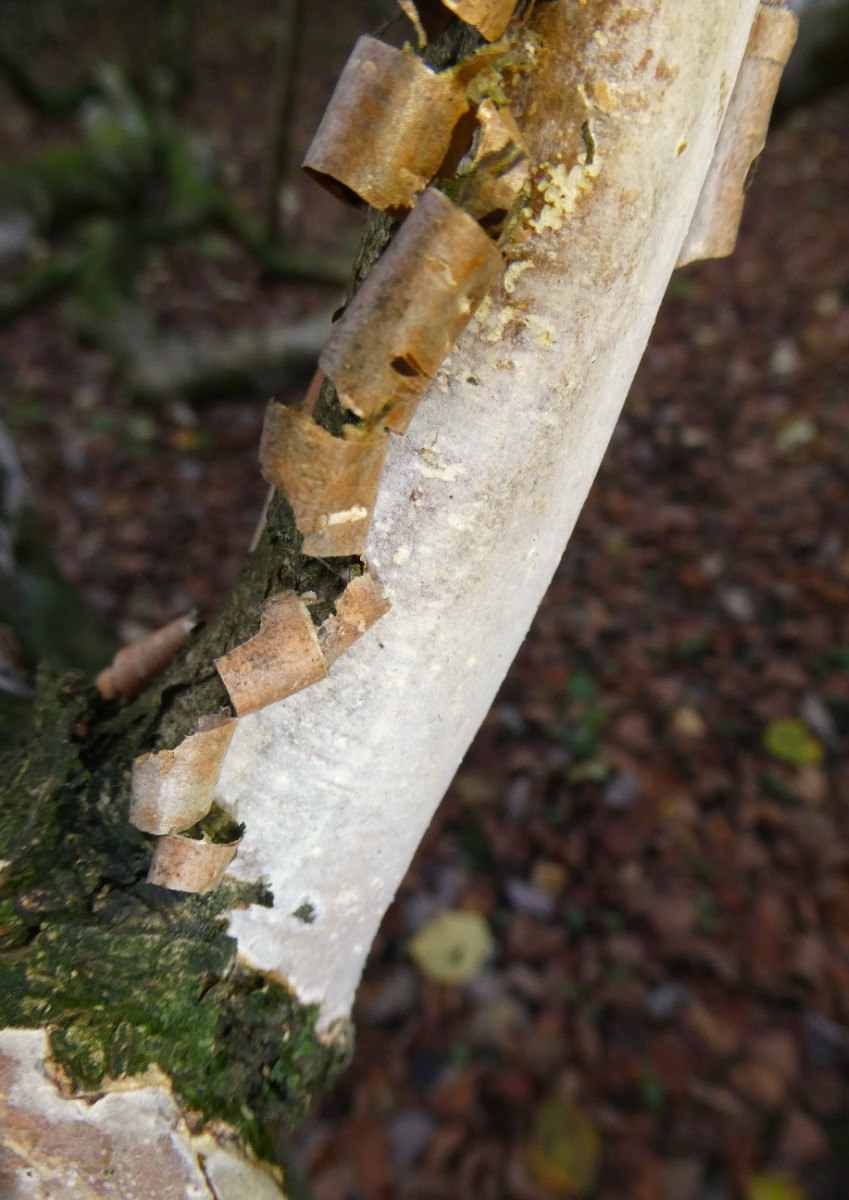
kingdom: Fungi
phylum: Basidiomycota
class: Agaricomycetes
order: Corticiales
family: Vuilleminiaceae
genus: Vuilleminia
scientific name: Vuilleminia coryli
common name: hassel-barksprænger
